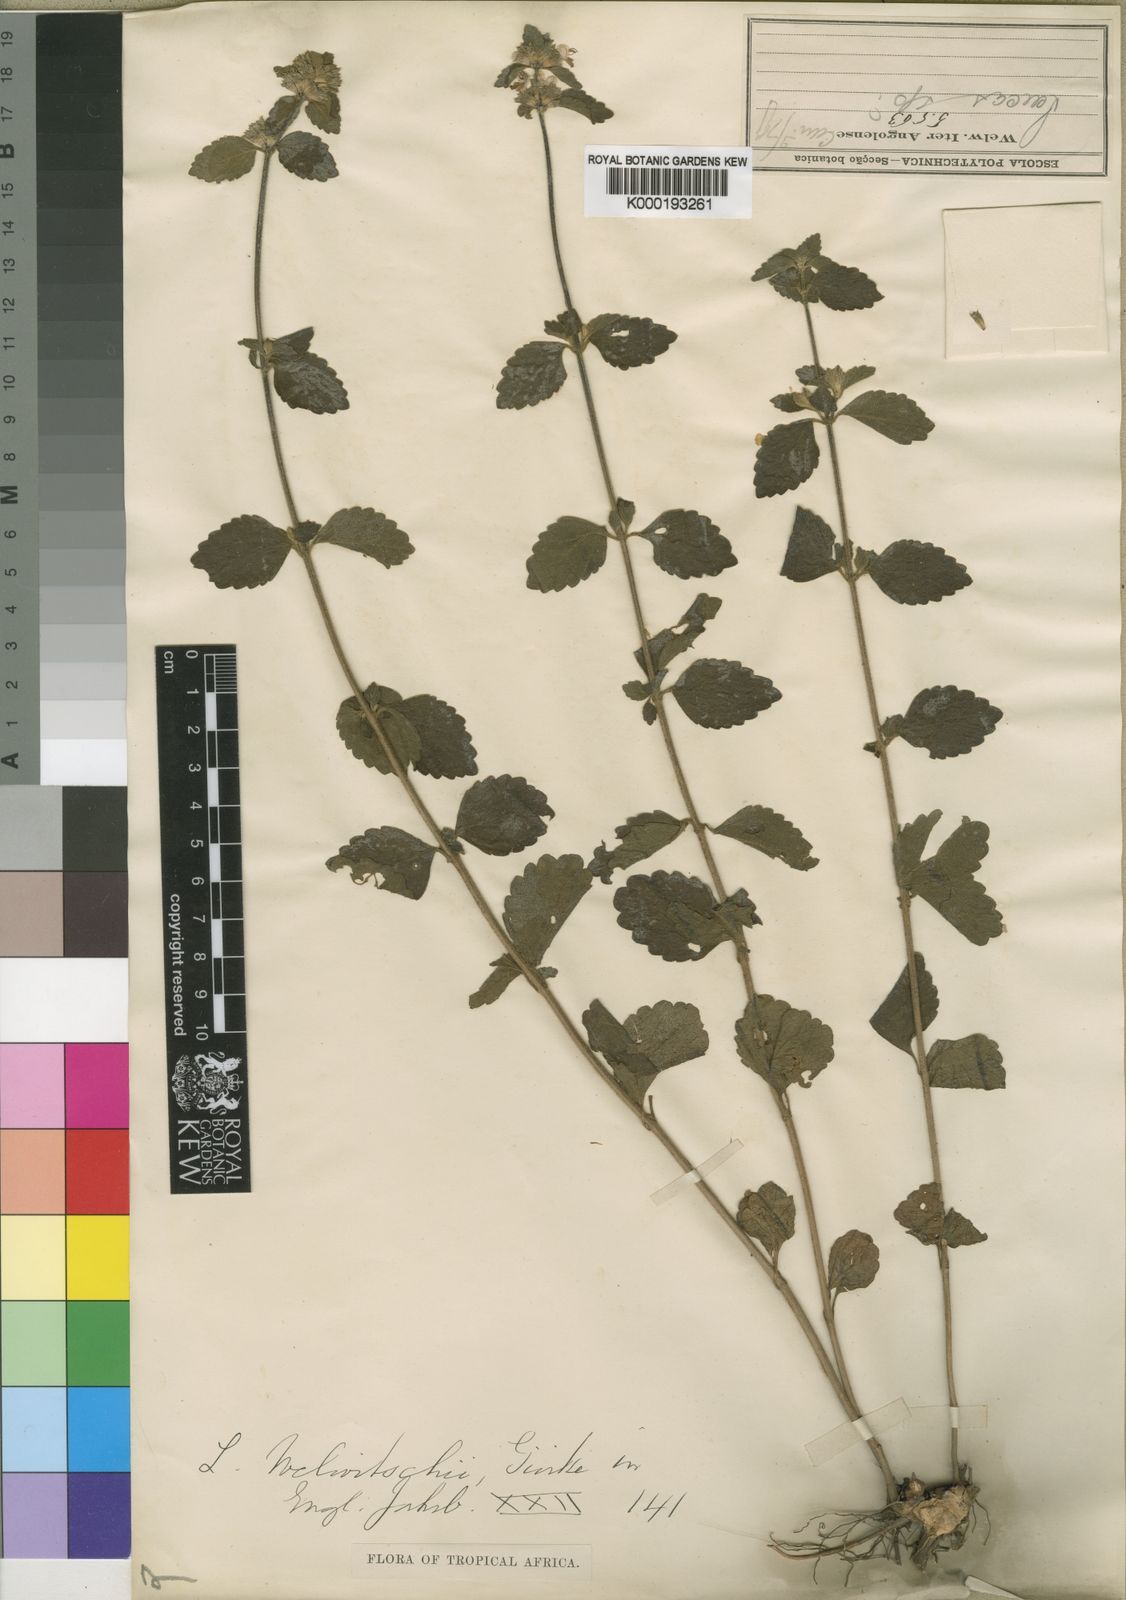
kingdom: Plantae
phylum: Tracheophyta
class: Magnoliopsida
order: Lamiales
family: Lamiaceae
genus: Leucas
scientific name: Leucas
